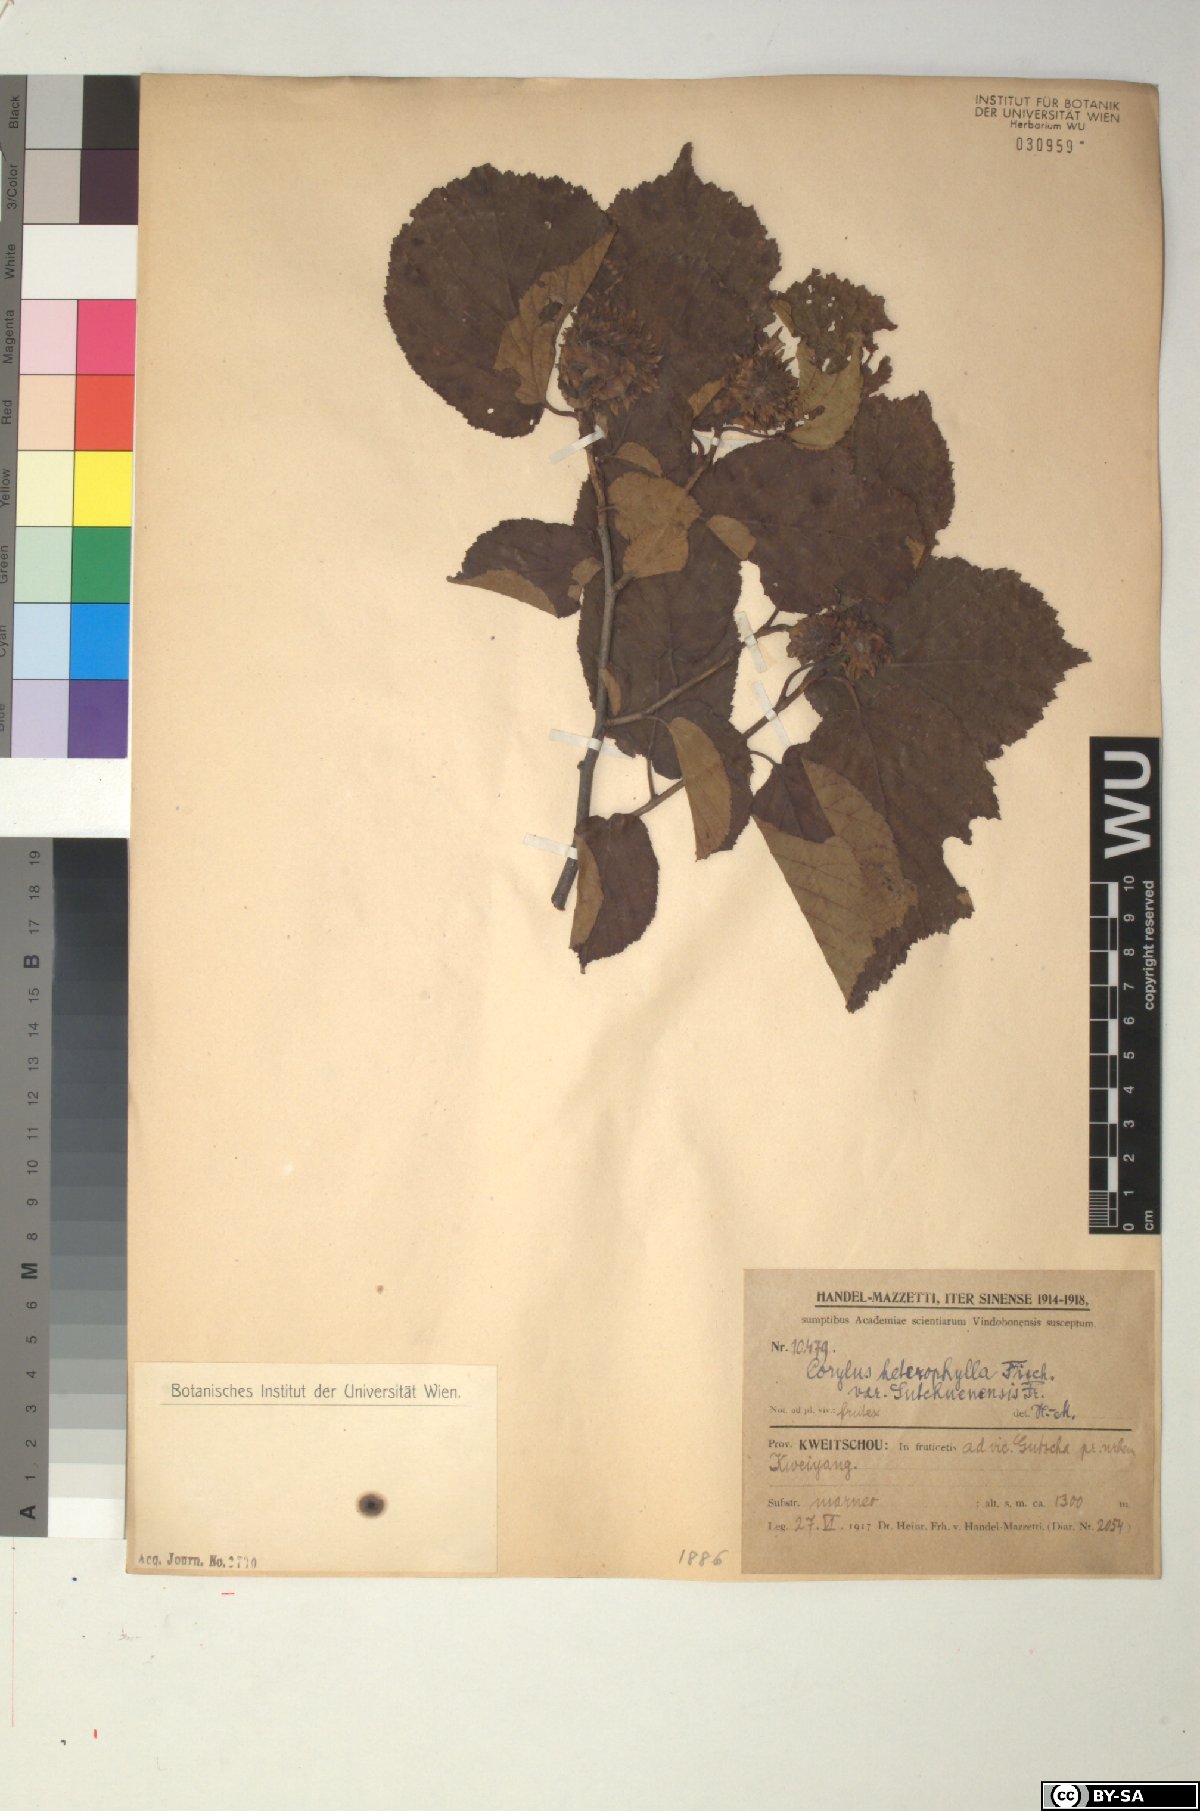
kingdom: Plantae
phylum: Tracheophyta
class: Magnoliopsida
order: Fagales
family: Betulaceae
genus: Corylus
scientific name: Corylus heterophylla
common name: Siberian hazelnut
